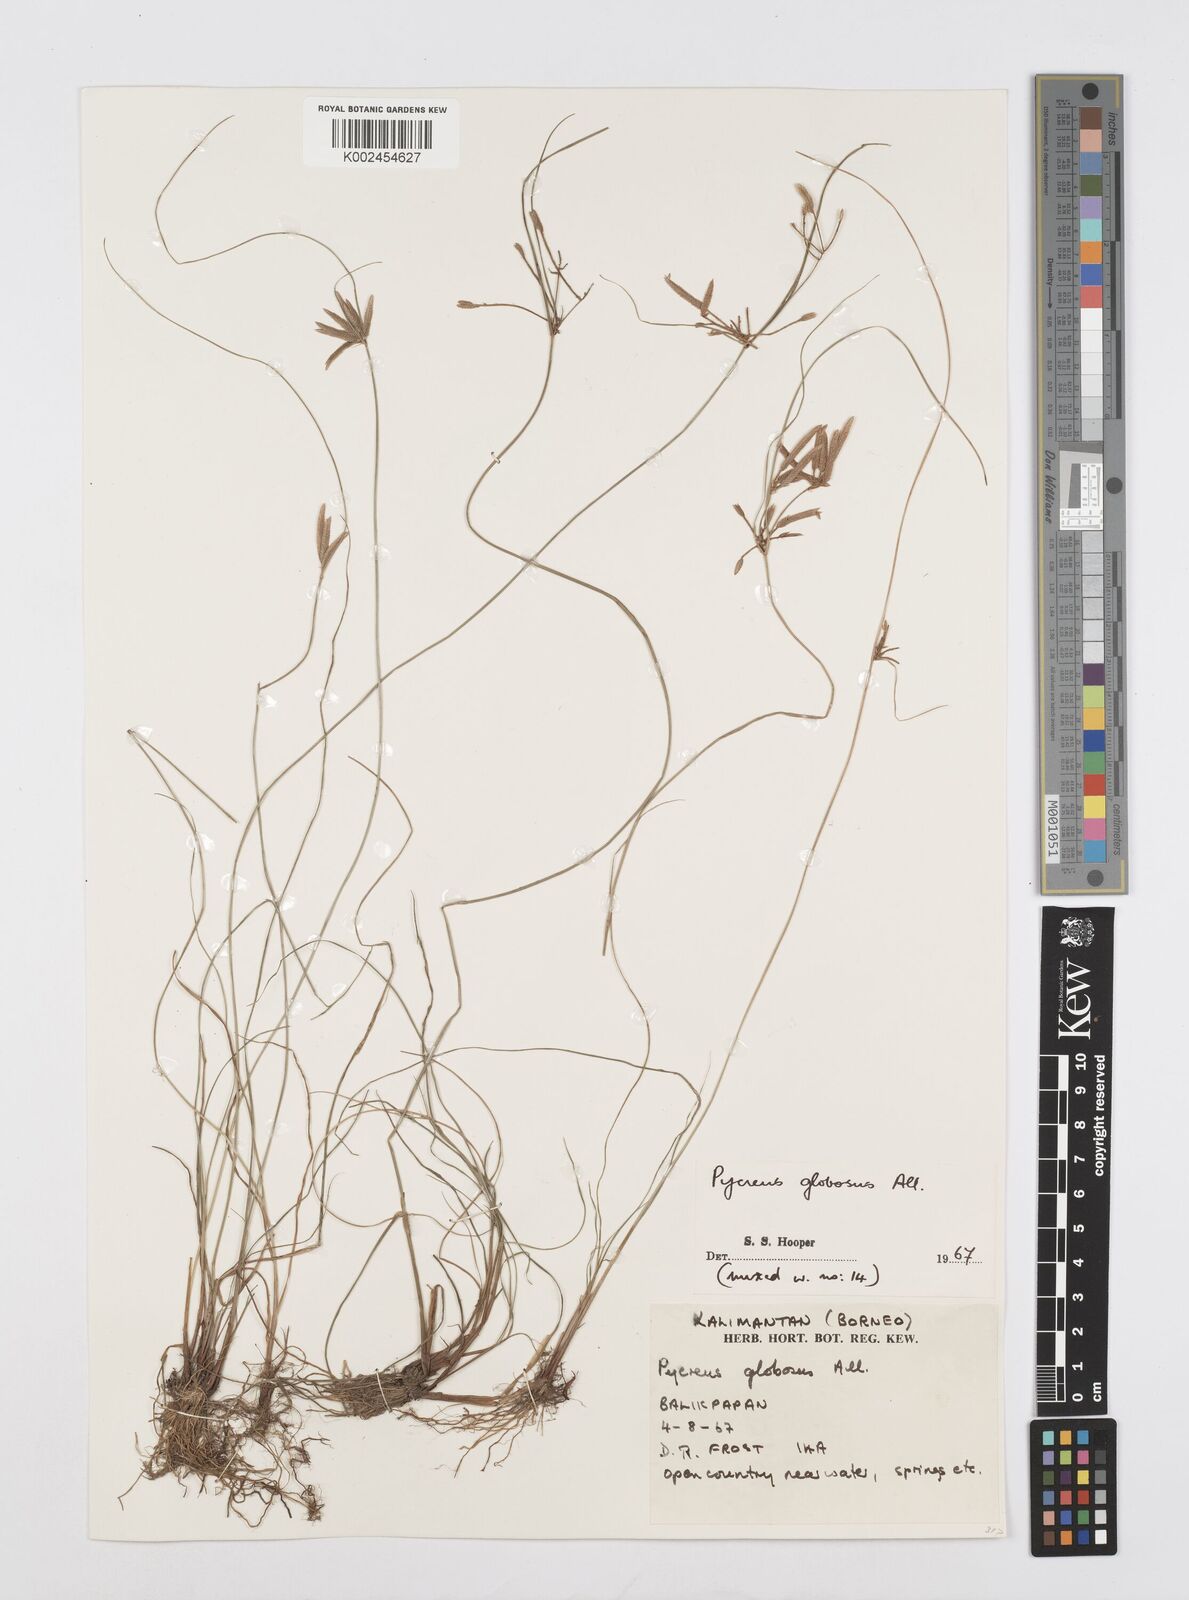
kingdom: Plantae
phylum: Tracheophyta
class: Liliopsida
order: Poales
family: Cyperaceae
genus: Cyperus
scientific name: Cyperus flavidus
